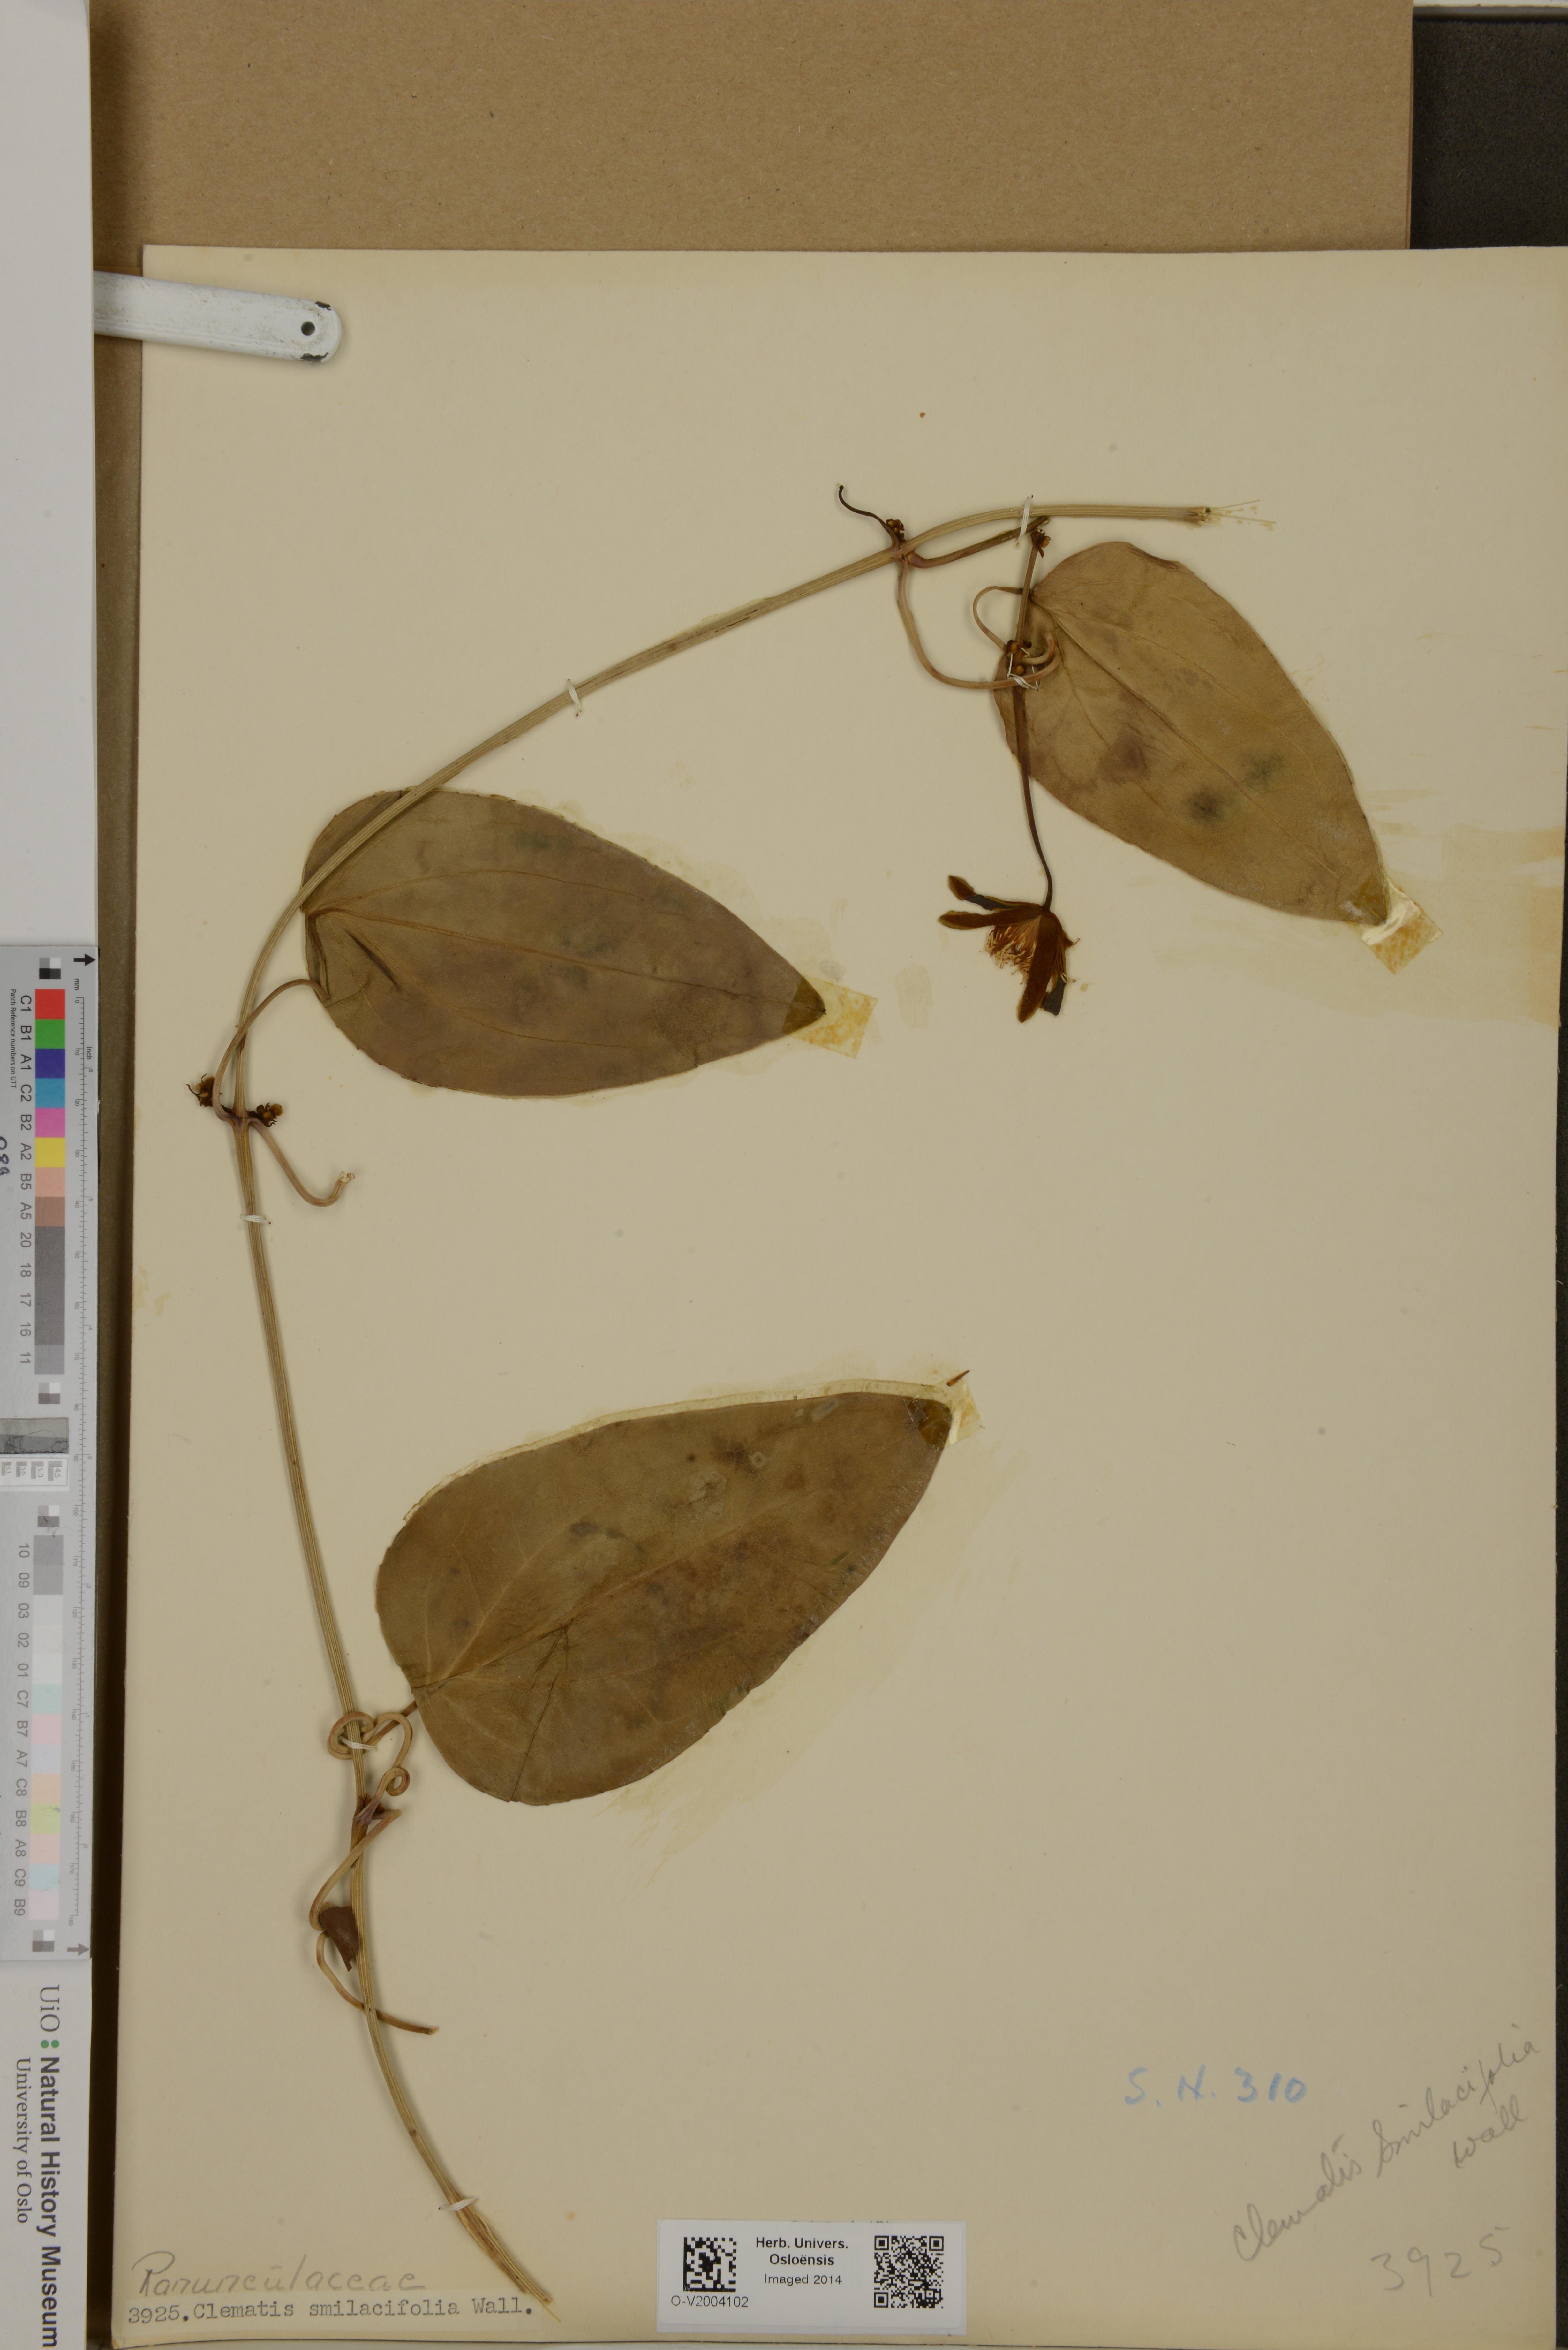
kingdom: Plantae
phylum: Tracheophyta
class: Magnoliopsida
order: Ranunculales
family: Ranunculaceae
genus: Clematis
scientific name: Clematis smilacifolia
